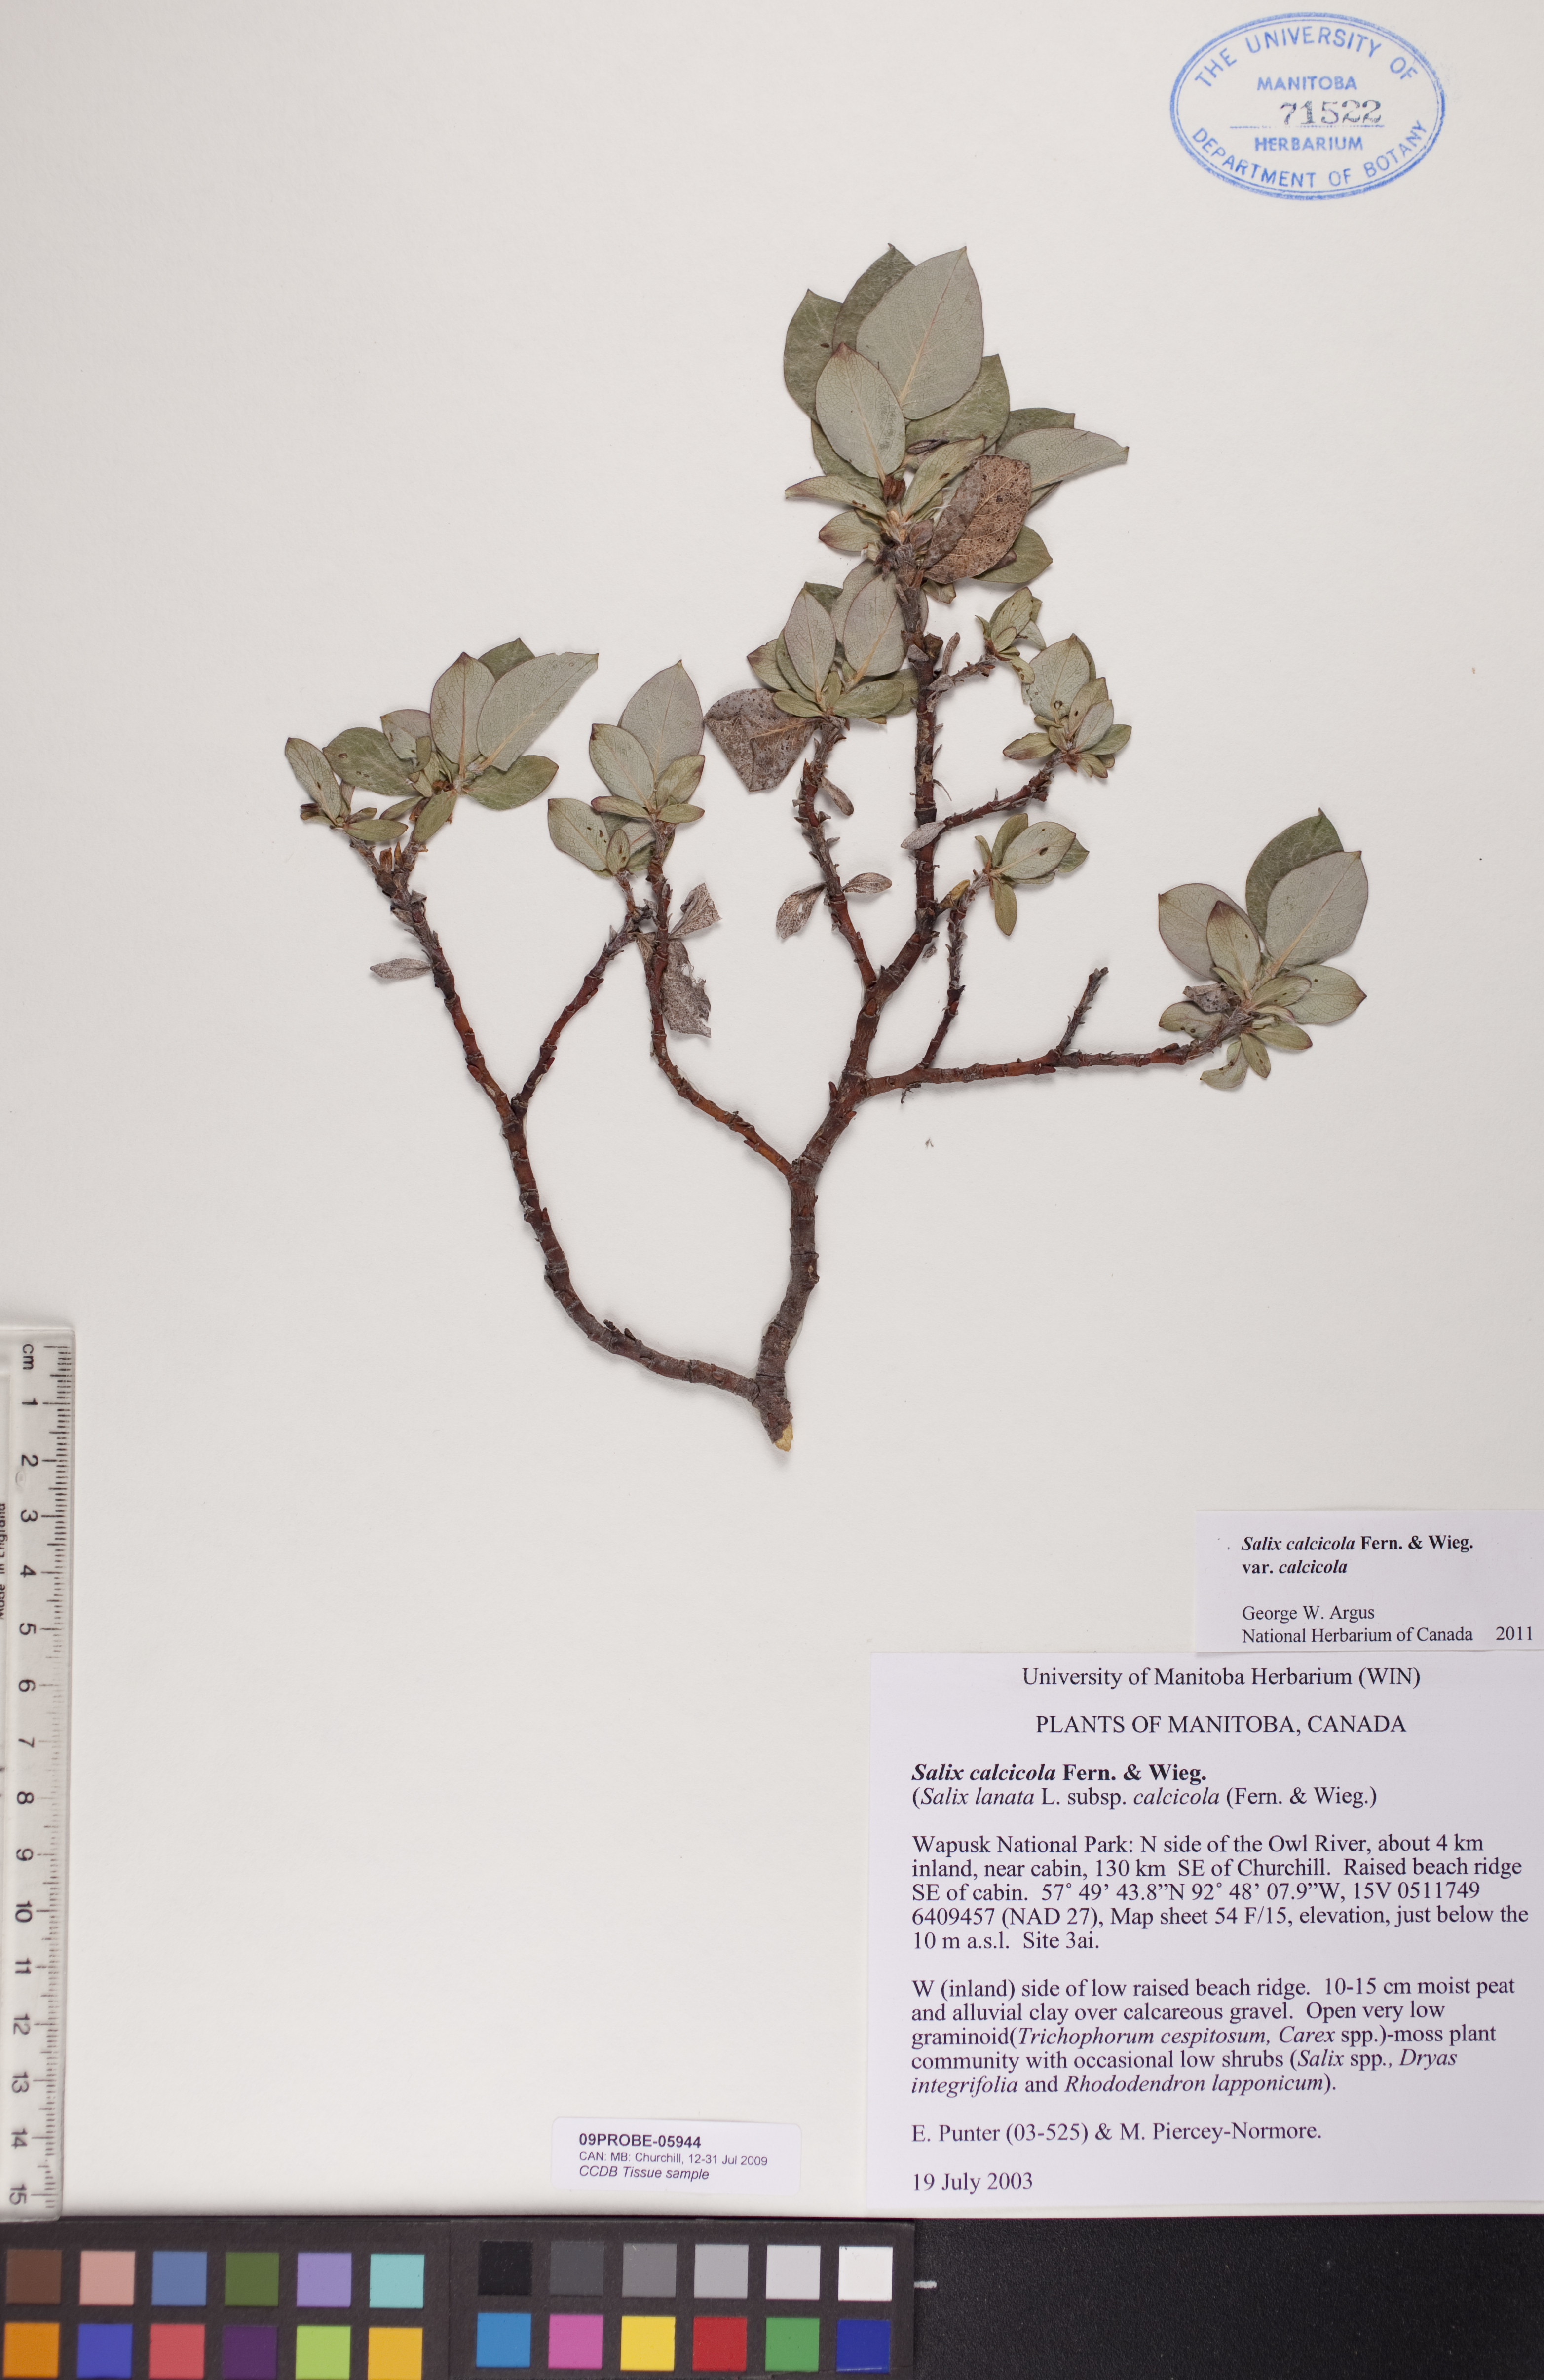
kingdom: Plantae
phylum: Tracheophyta
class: Magnoliopsida
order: Malpighiales
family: Salicaceae
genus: Salix
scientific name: Salix calcicola
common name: Calcareous willow
